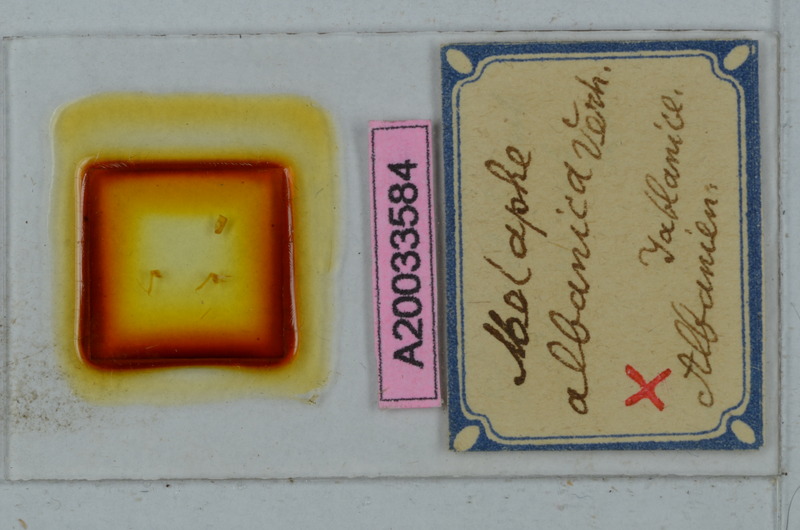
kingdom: Animalia
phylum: Arthropoda
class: Diplopoda
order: Polydesmida
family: Xystodesmidae
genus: Ochridaphe
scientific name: Ochridaphe albanica
